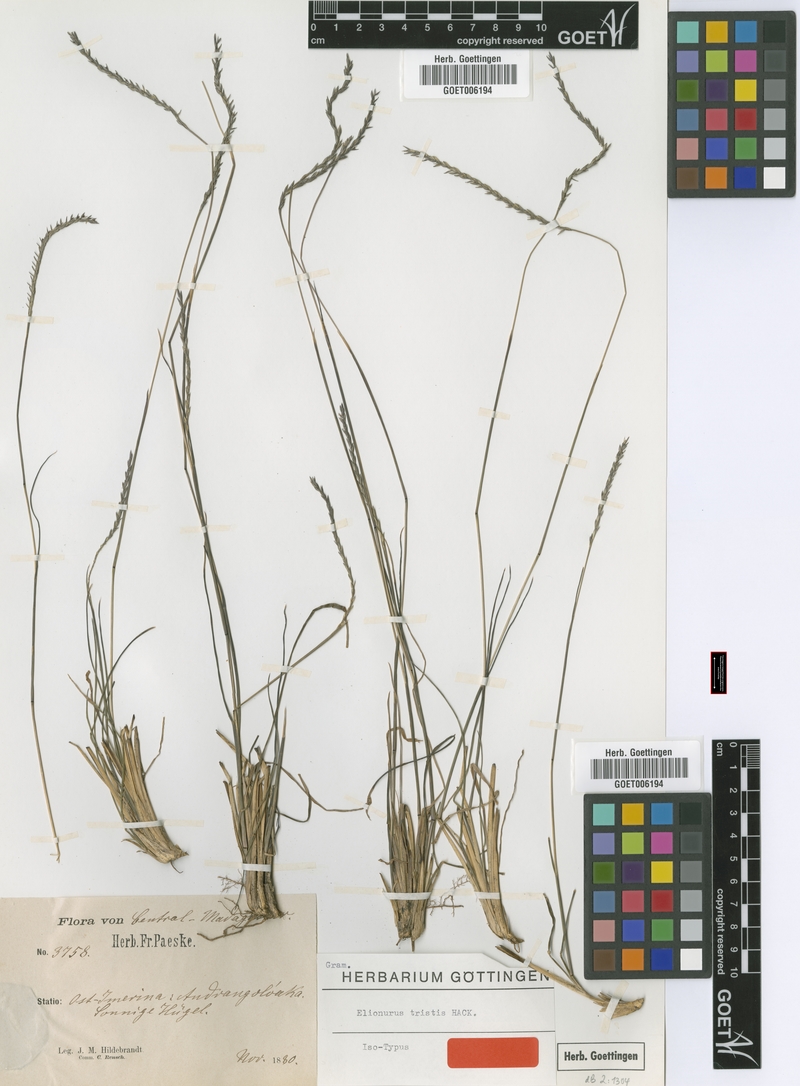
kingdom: Plantae
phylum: Tracheophyta
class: Liliopsida
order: Poales
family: Poaceae
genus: Elionurus
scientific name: Elionurus tristis
